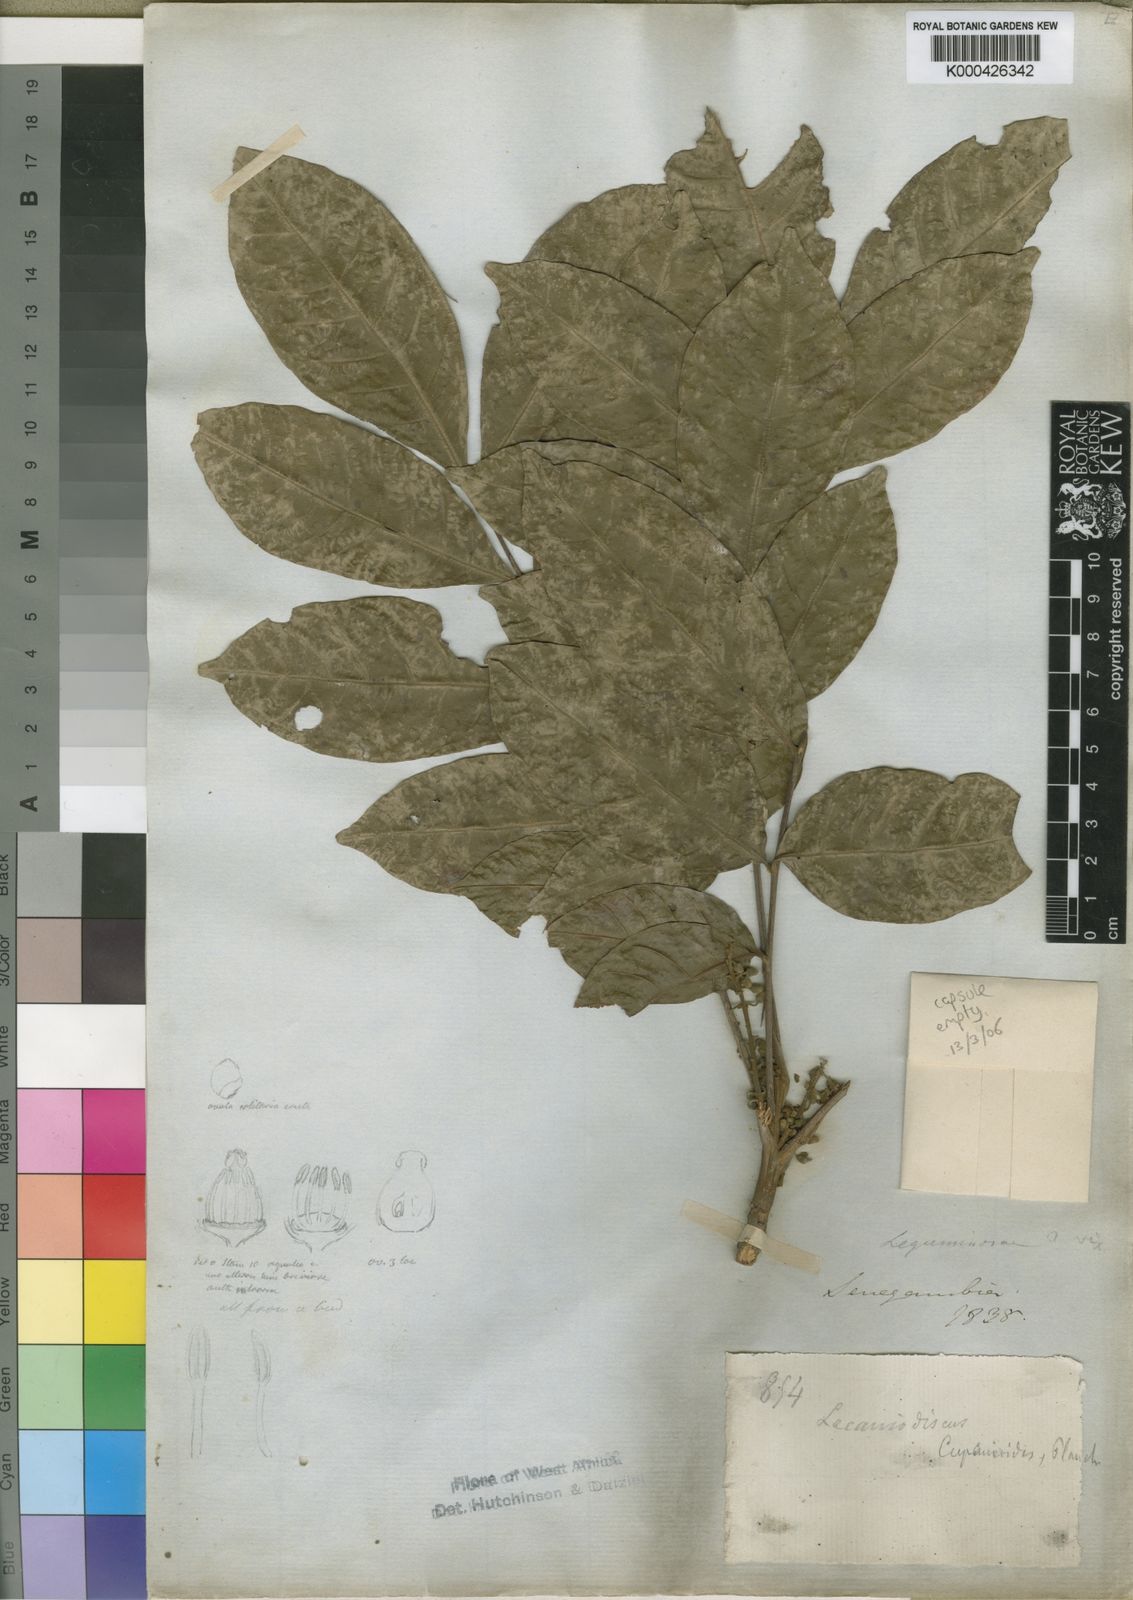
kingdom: Plantae
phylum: Tracheophyta
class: Magnoliopsida
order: Sapindales
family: Sapindaceae
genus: Lecaniodiscus
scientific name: Lecaniodiscus
